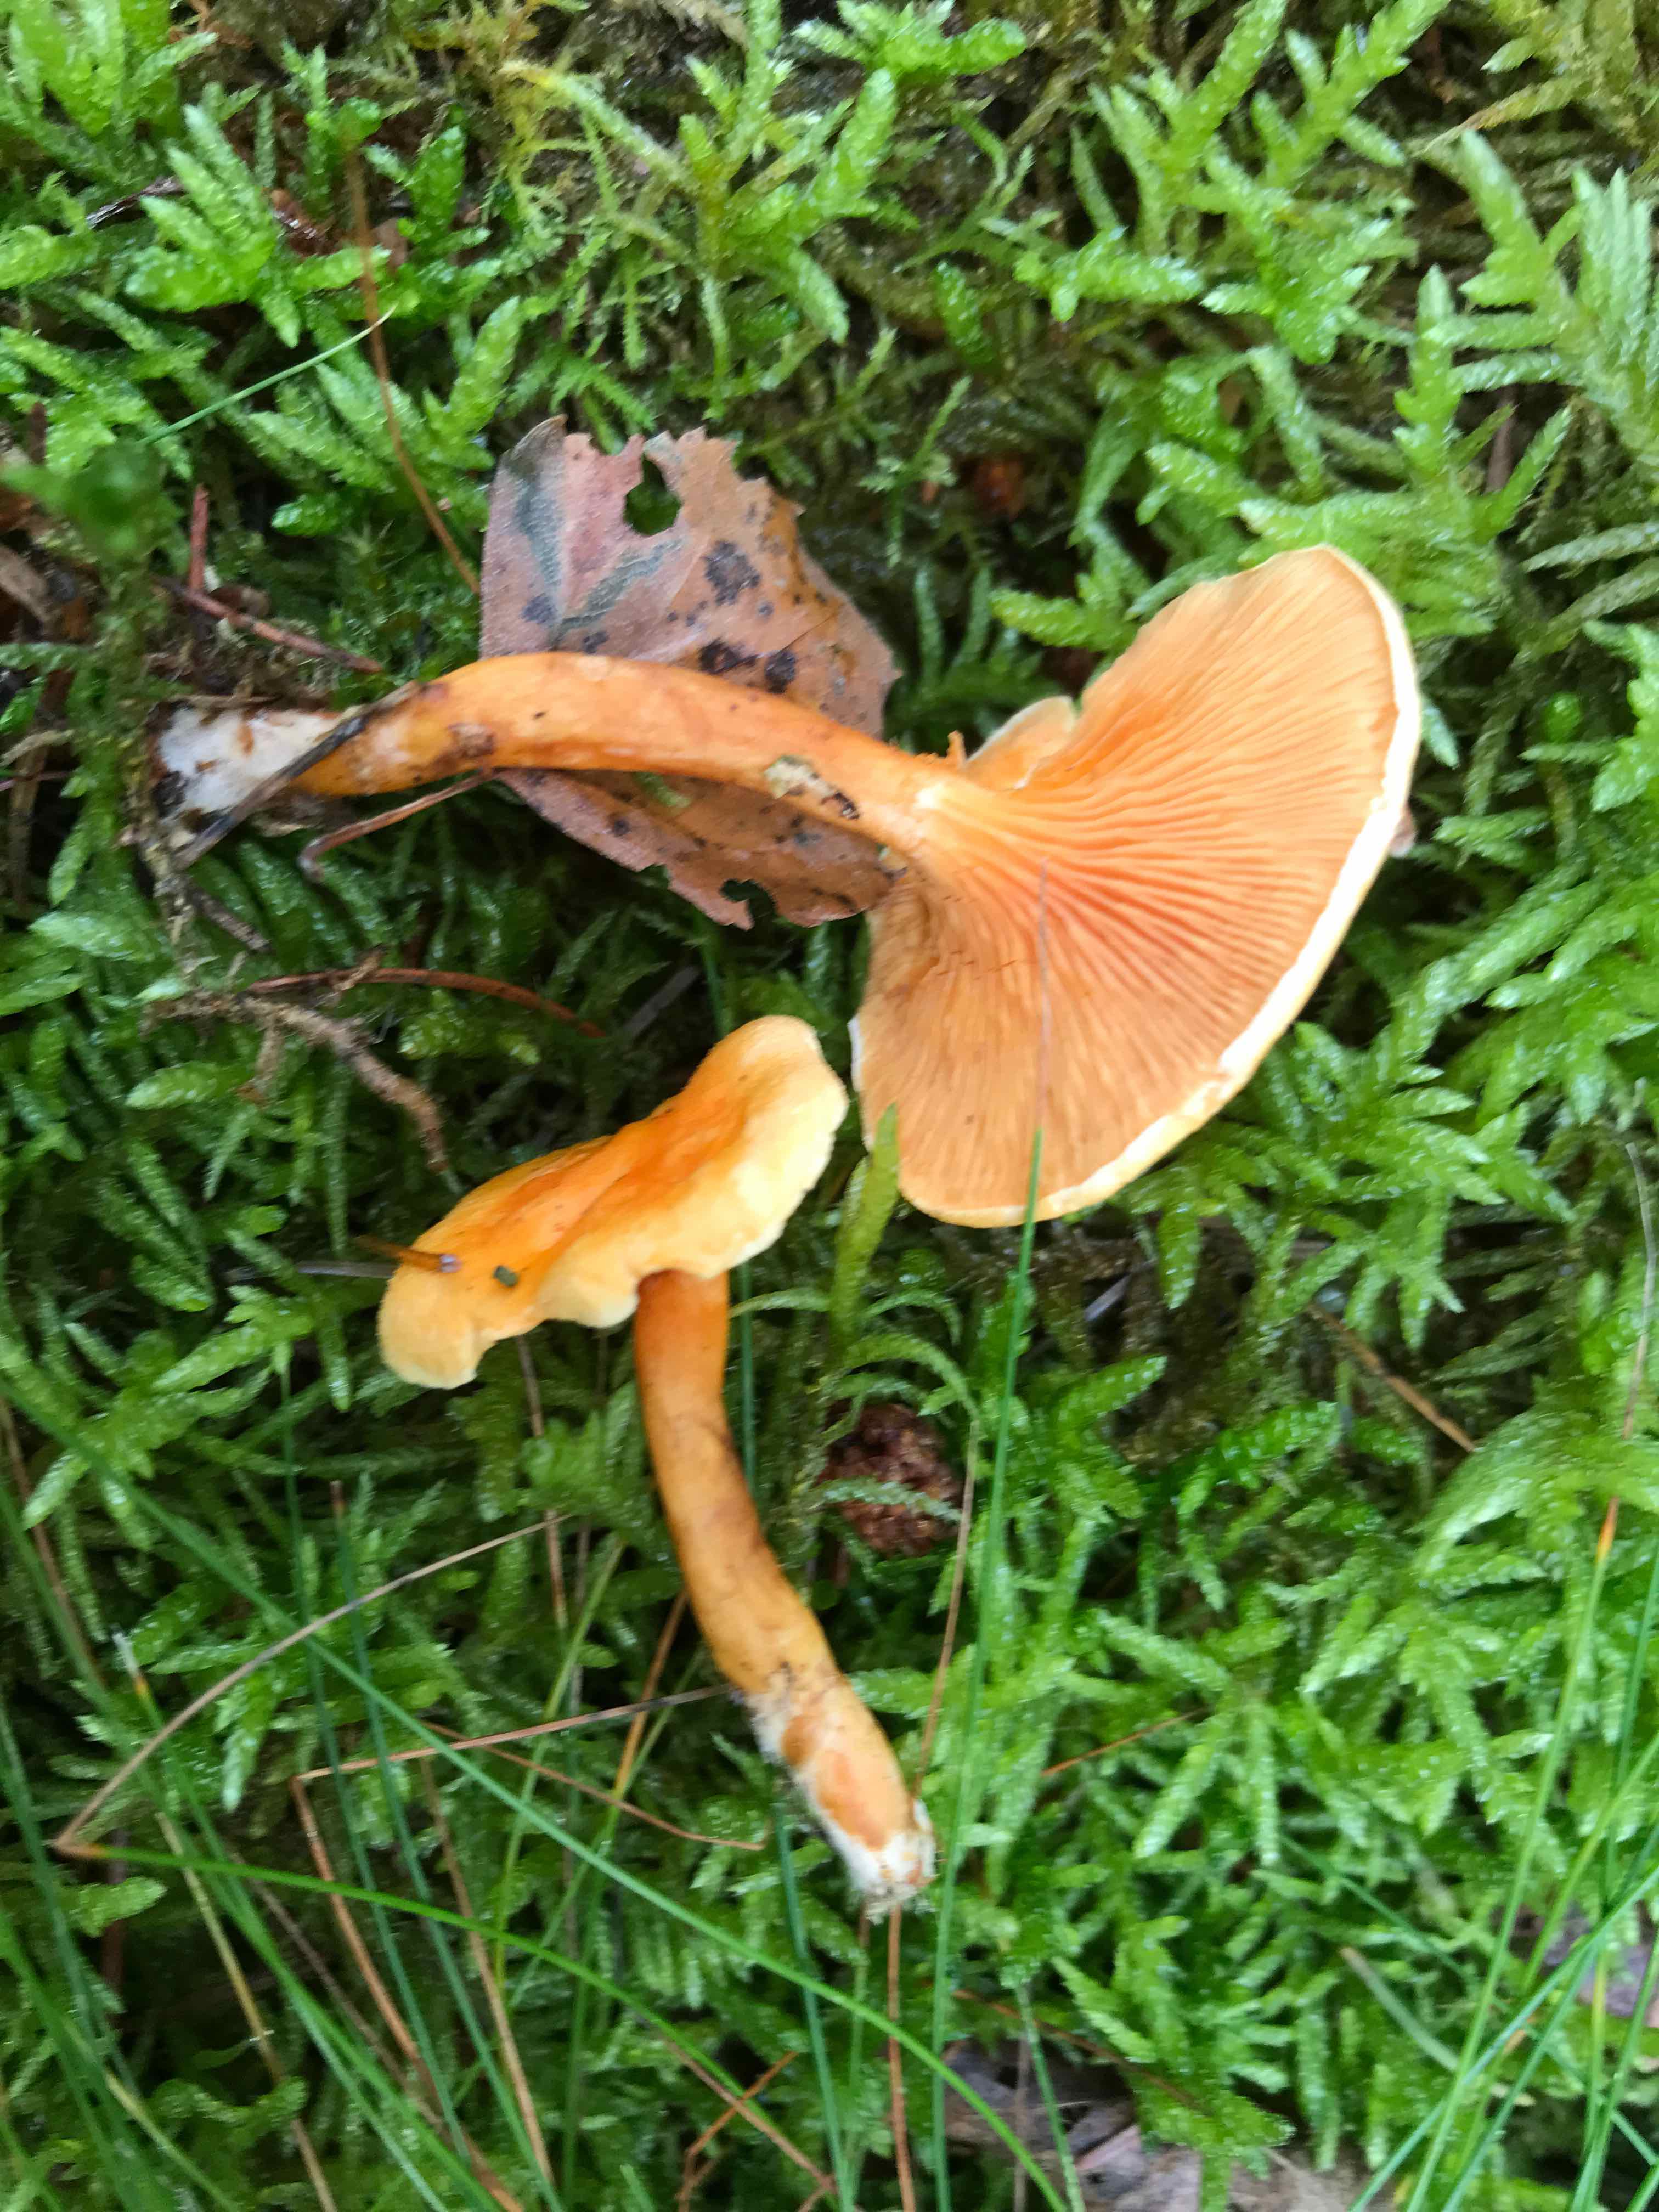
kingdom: Fungi
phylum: Basidiomycota
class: Agaricomycetes
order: Boletales
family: Hygrophoropsidaceae
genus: Hygrophoropsis
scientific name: Hygrophoropsis aurantiaca
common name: almindelig orangekantarel
